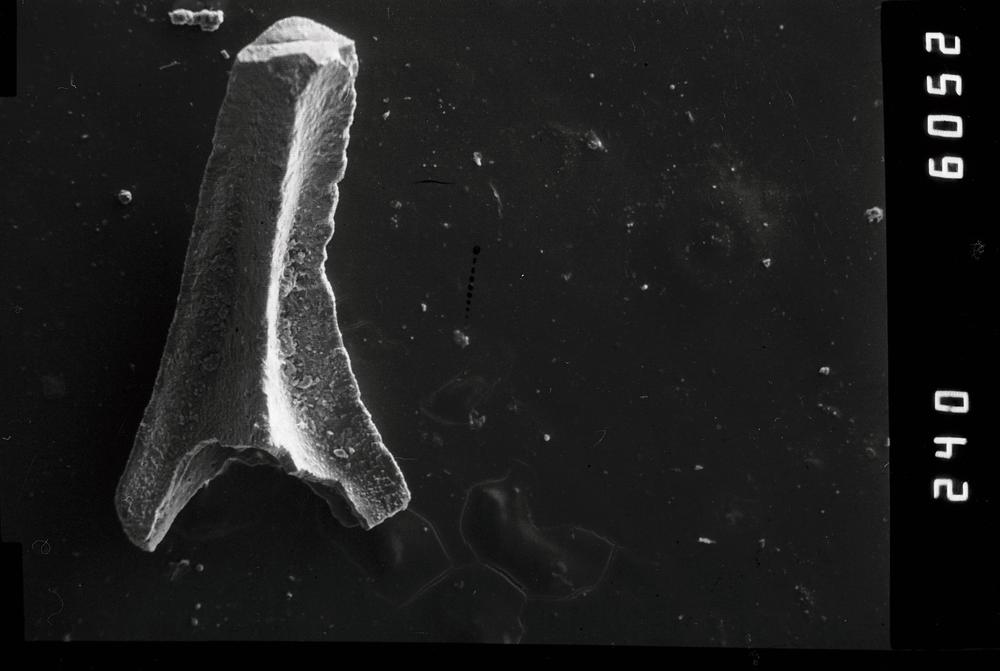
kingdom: Animalia
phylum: Chordata
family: Acodontidae
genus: Tripodus
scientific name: Tripodus
